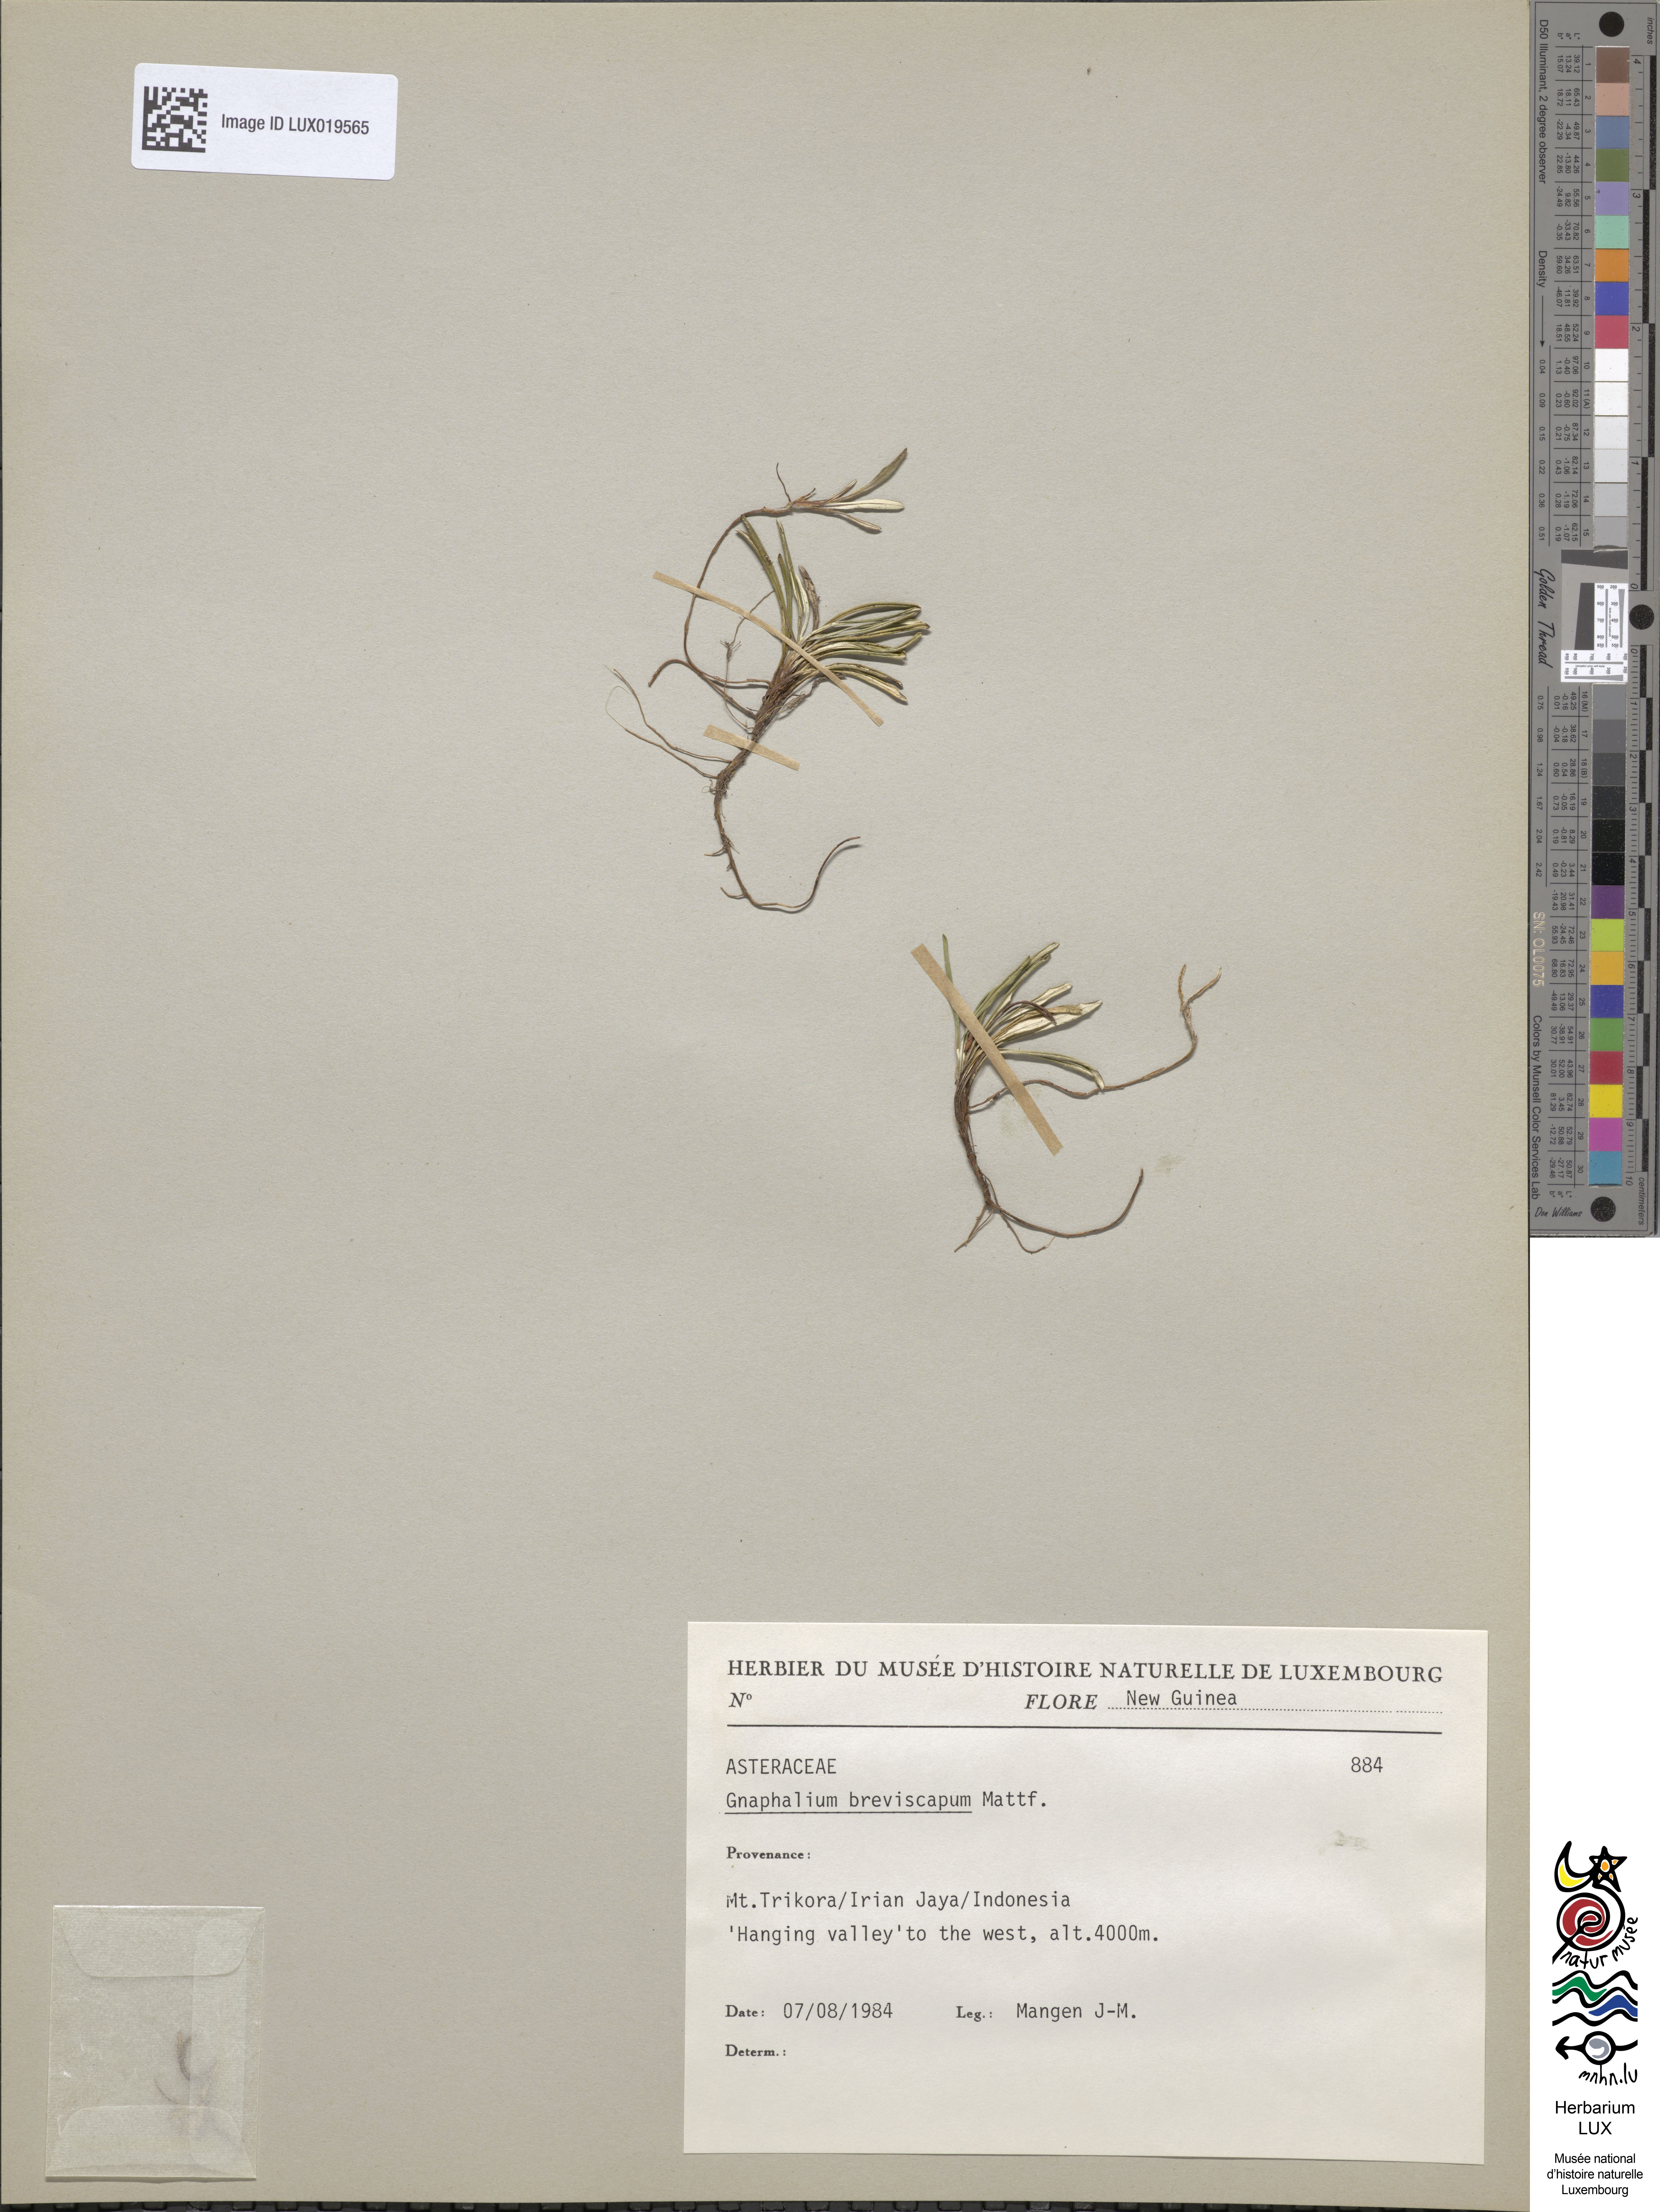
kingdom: Plantae
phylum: Tracheophyta
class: Magnoliopsida
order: Asterales
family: Asteraceae
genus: Euchiton
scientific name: Euchiton breviscapus
